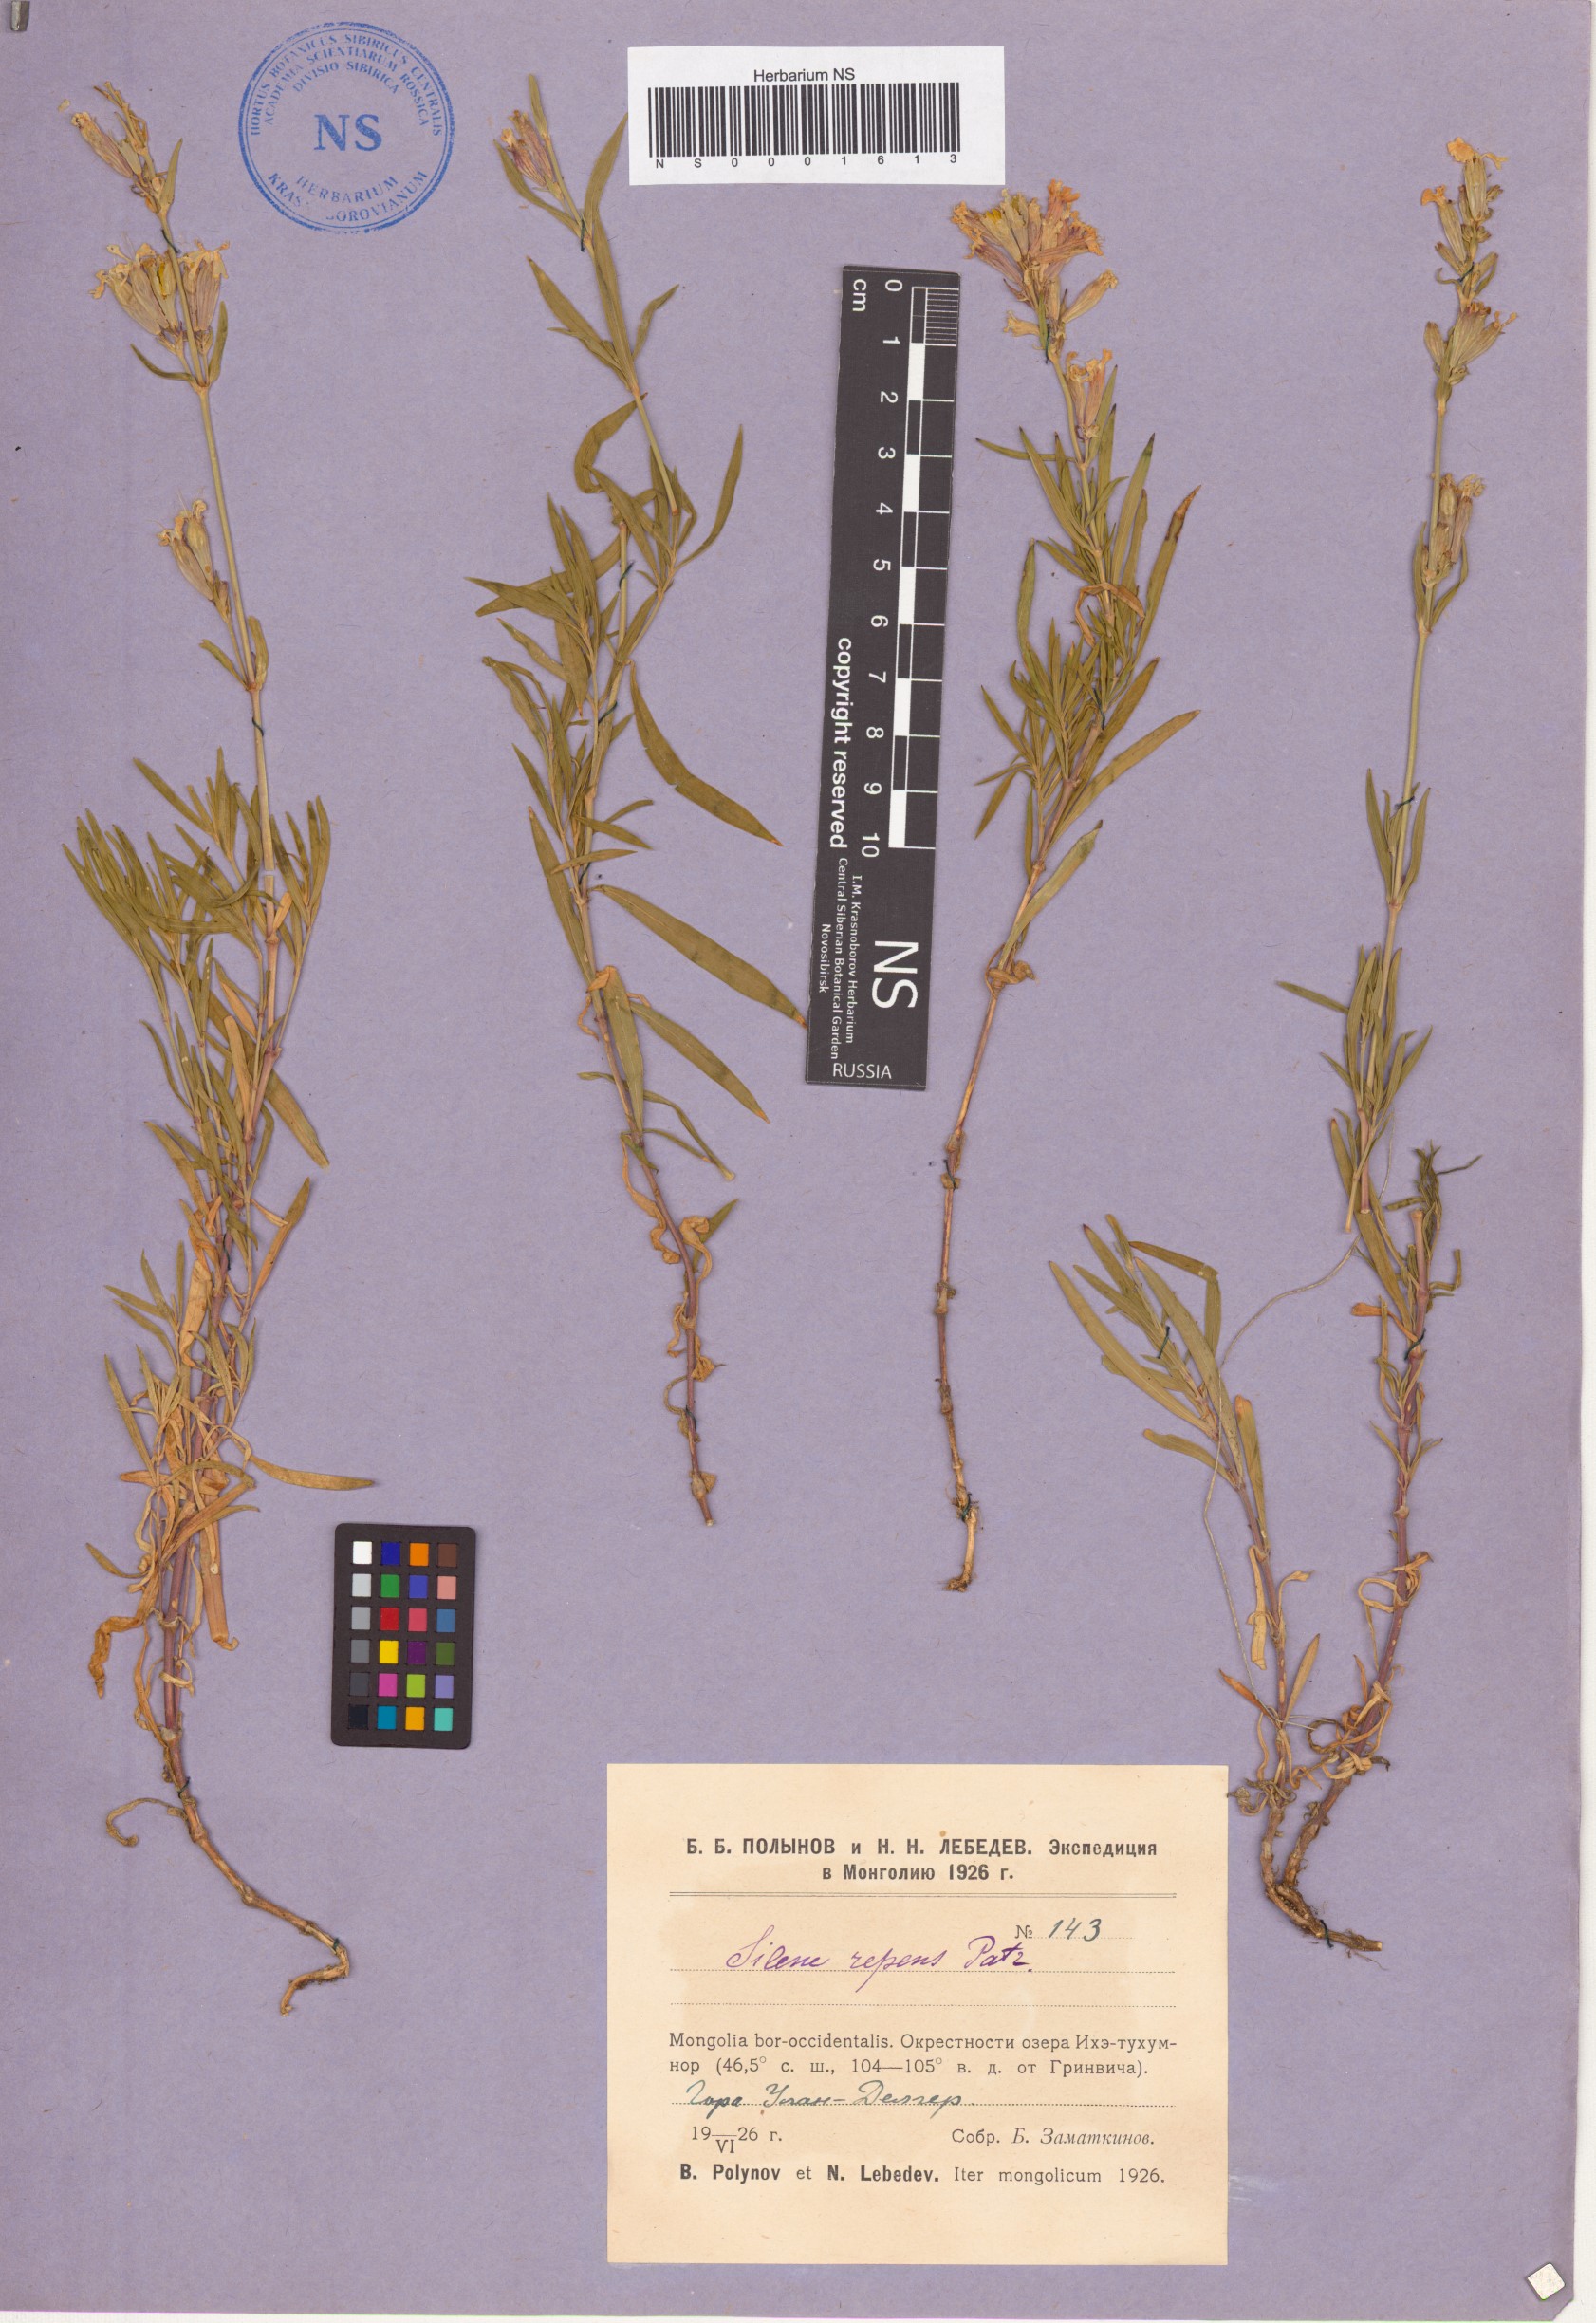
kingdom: Plantae
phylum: Tracheophyta
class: Magnoliopsida
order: Caryophyllales
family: Caryophyllaceae
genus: Silene
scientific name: Silene repens
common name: Pink campion
